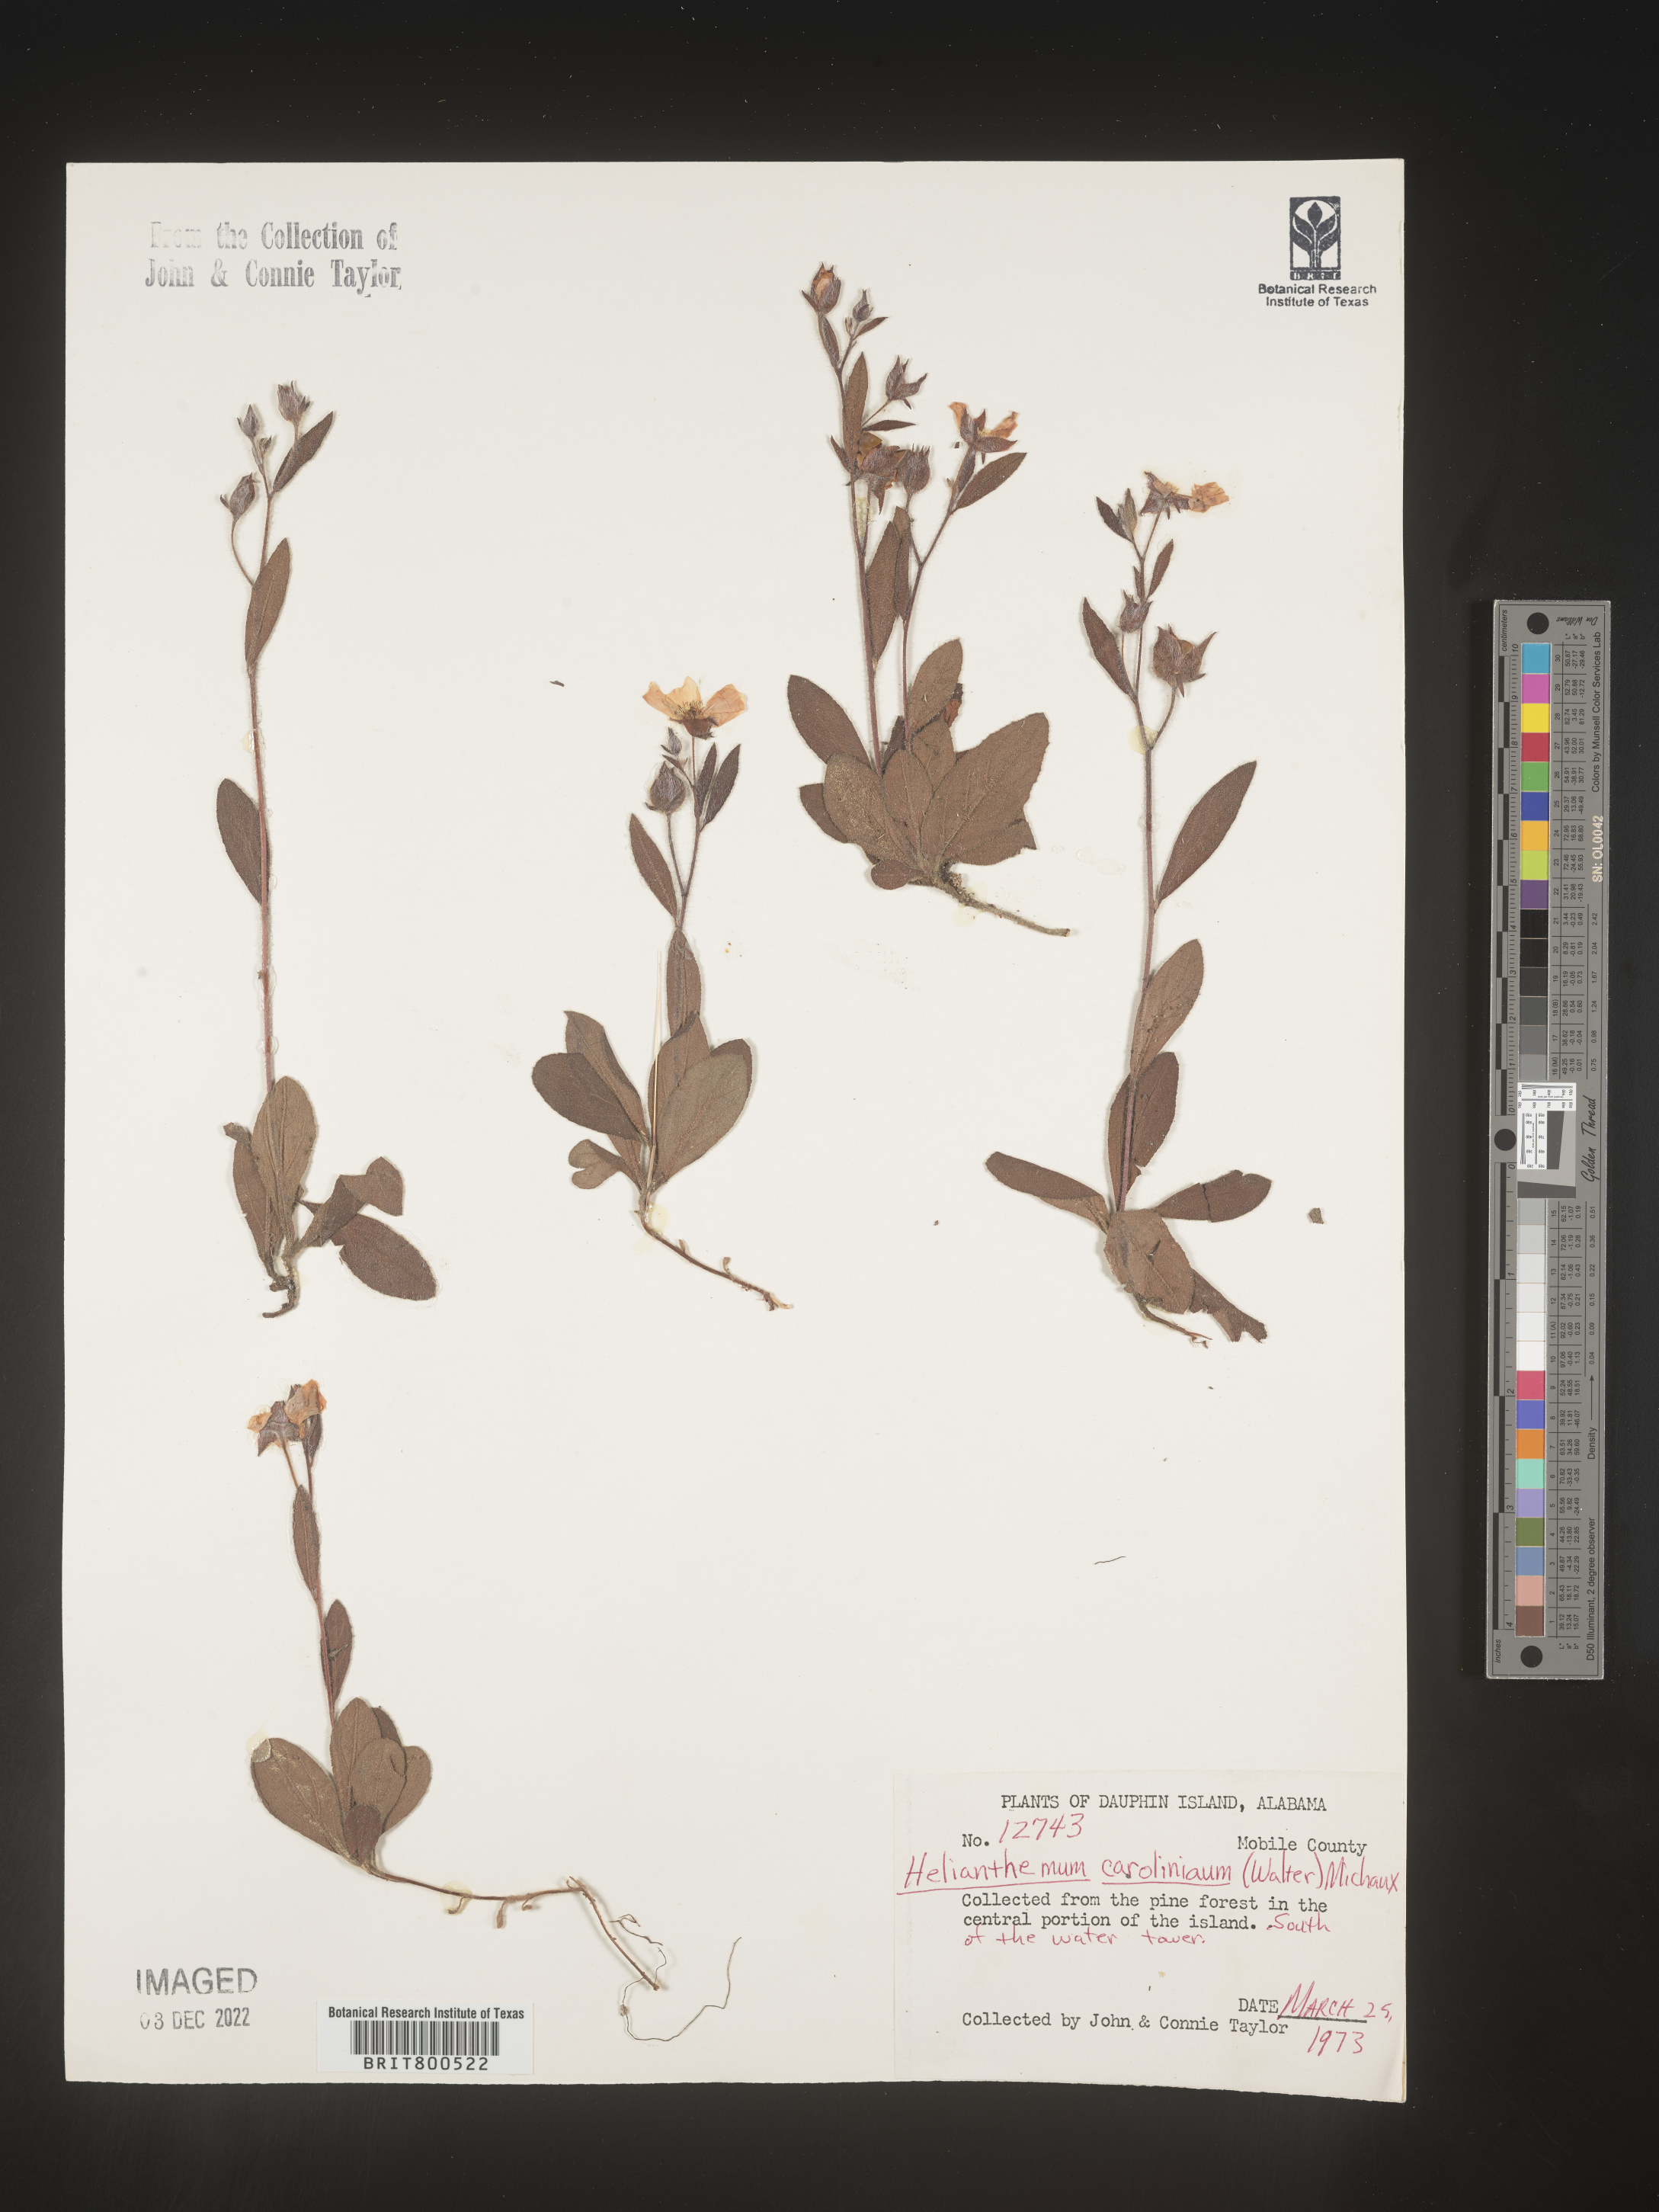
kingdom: Plantae
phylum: Tracheophyta
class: Magnoliopsida
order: Malvales
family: Cistaceae
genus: Crocanthemum
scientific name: Crocanthemum carolinianum
